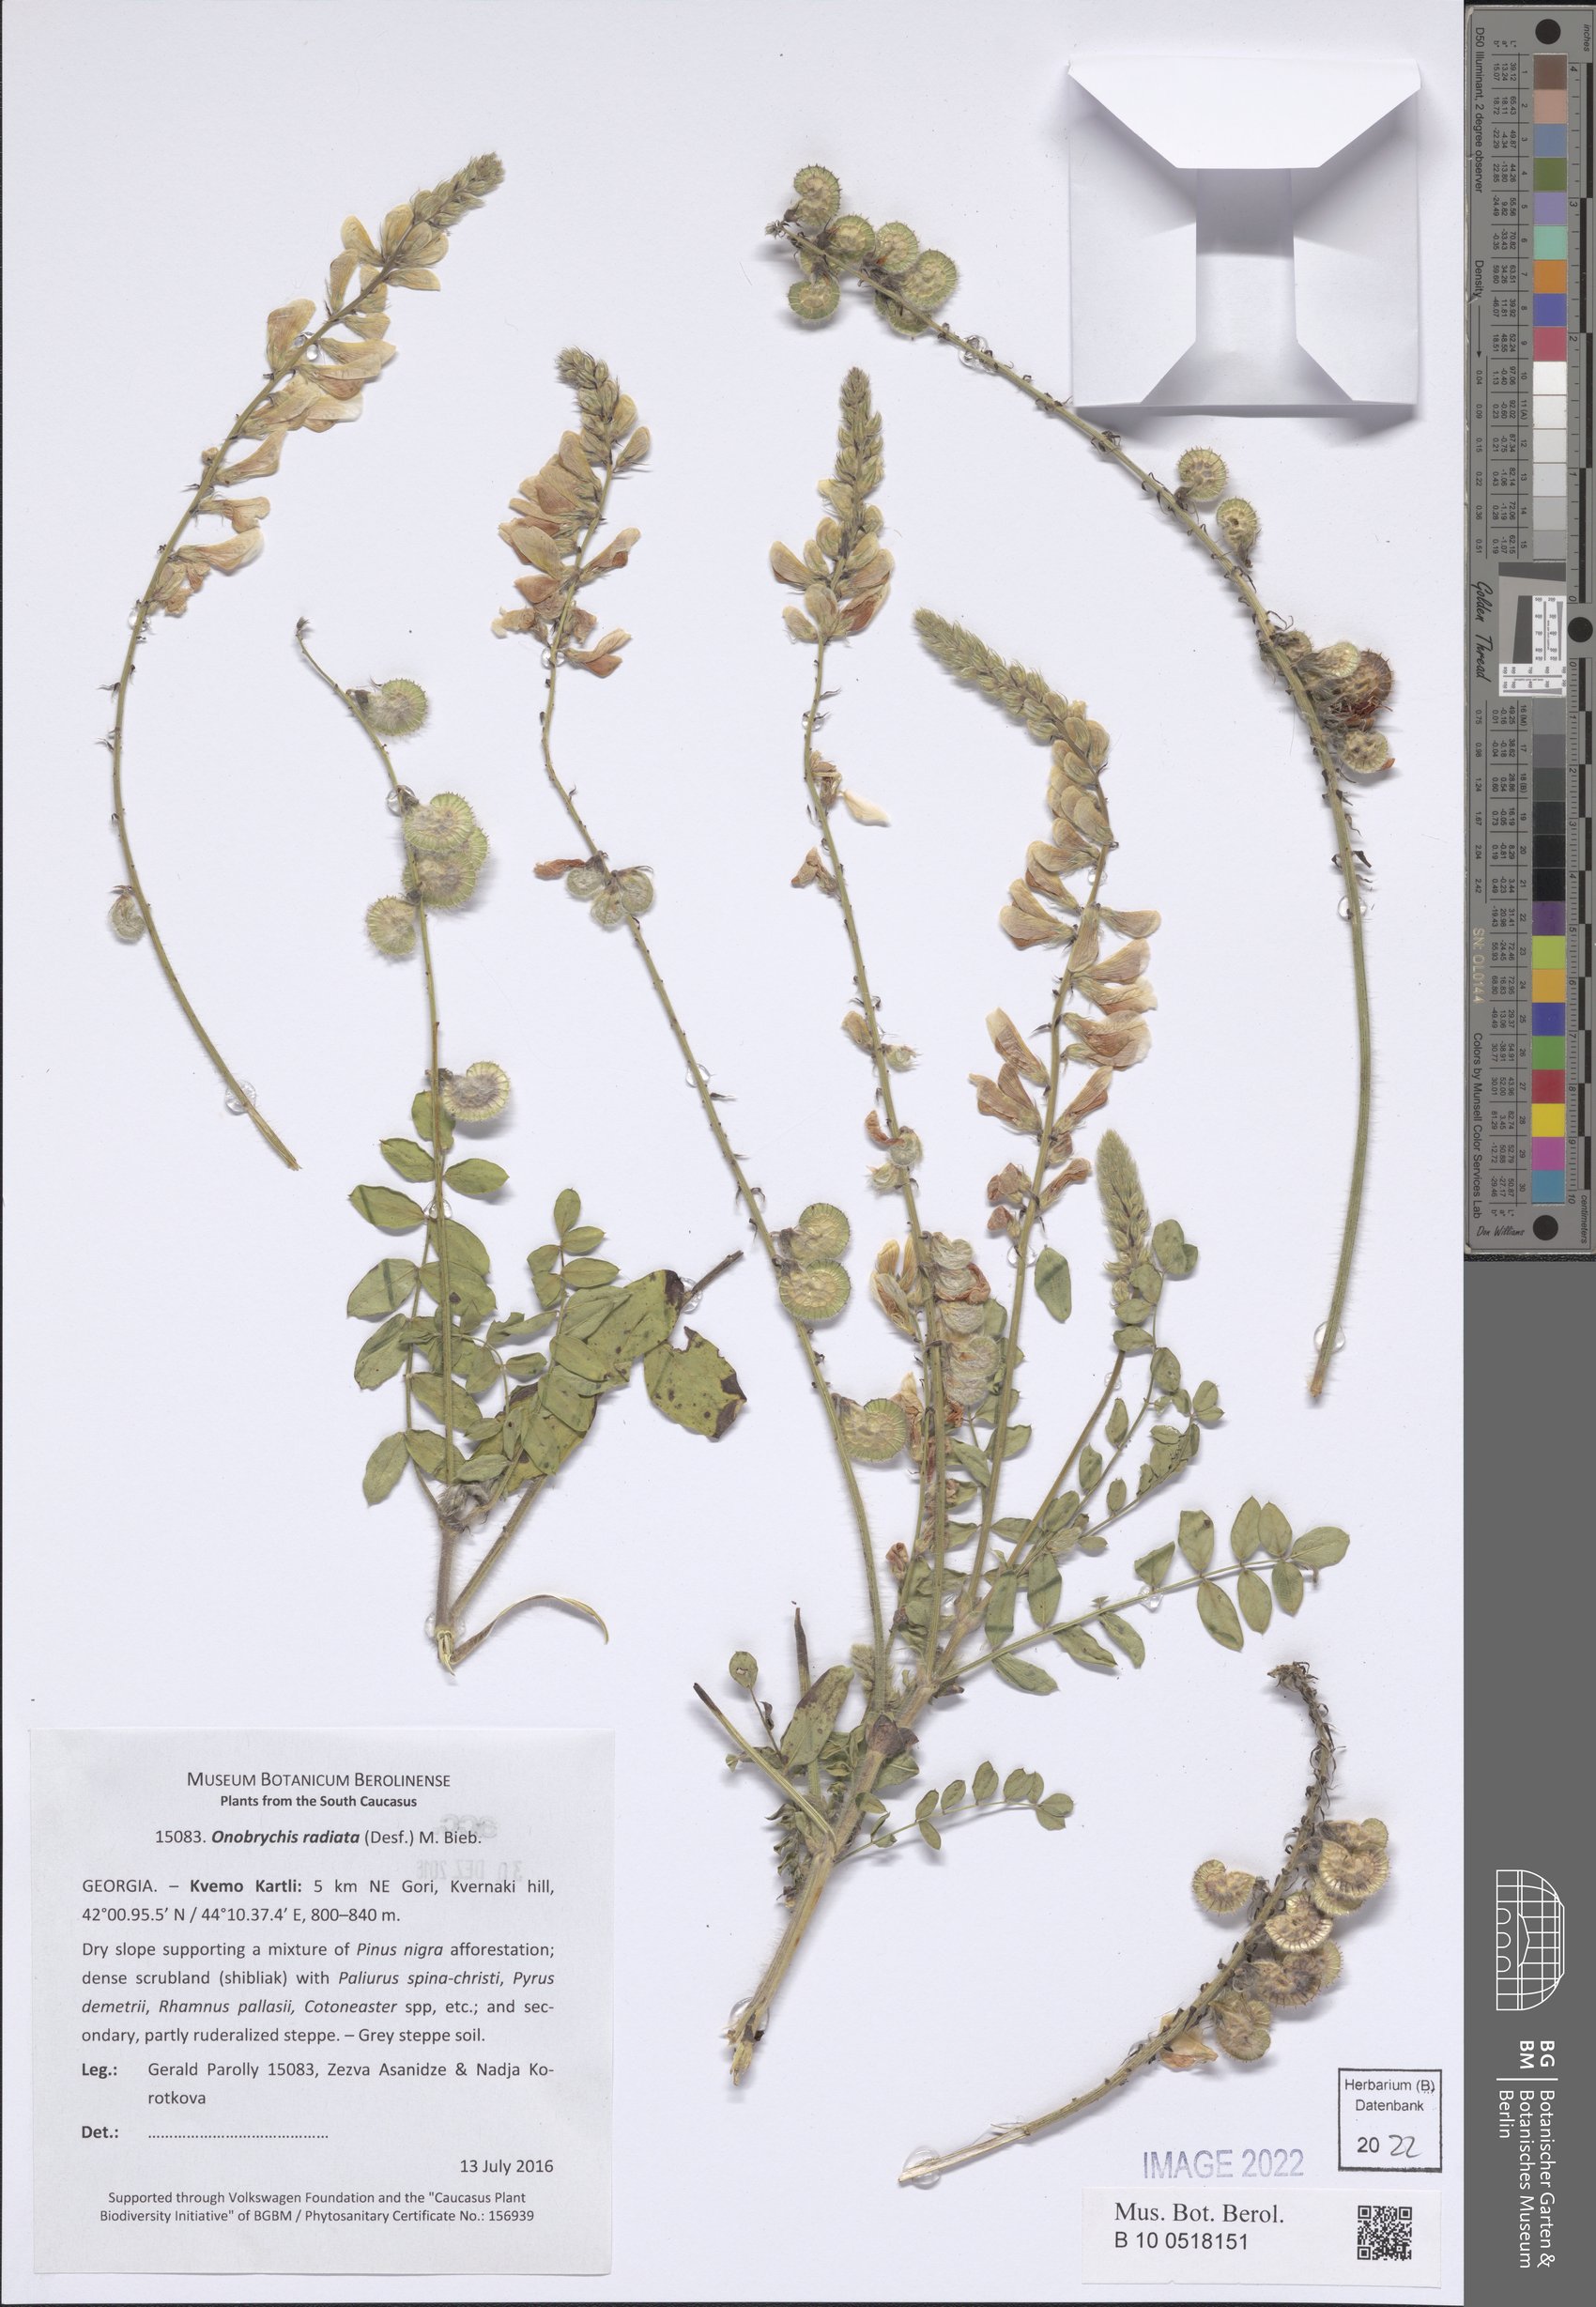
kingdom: Plantae
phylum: Tracheophyta
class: Magnoliopsida
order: Fabales
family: Fabaceae
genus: Onobrychis
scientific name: Onobrychis radiata
